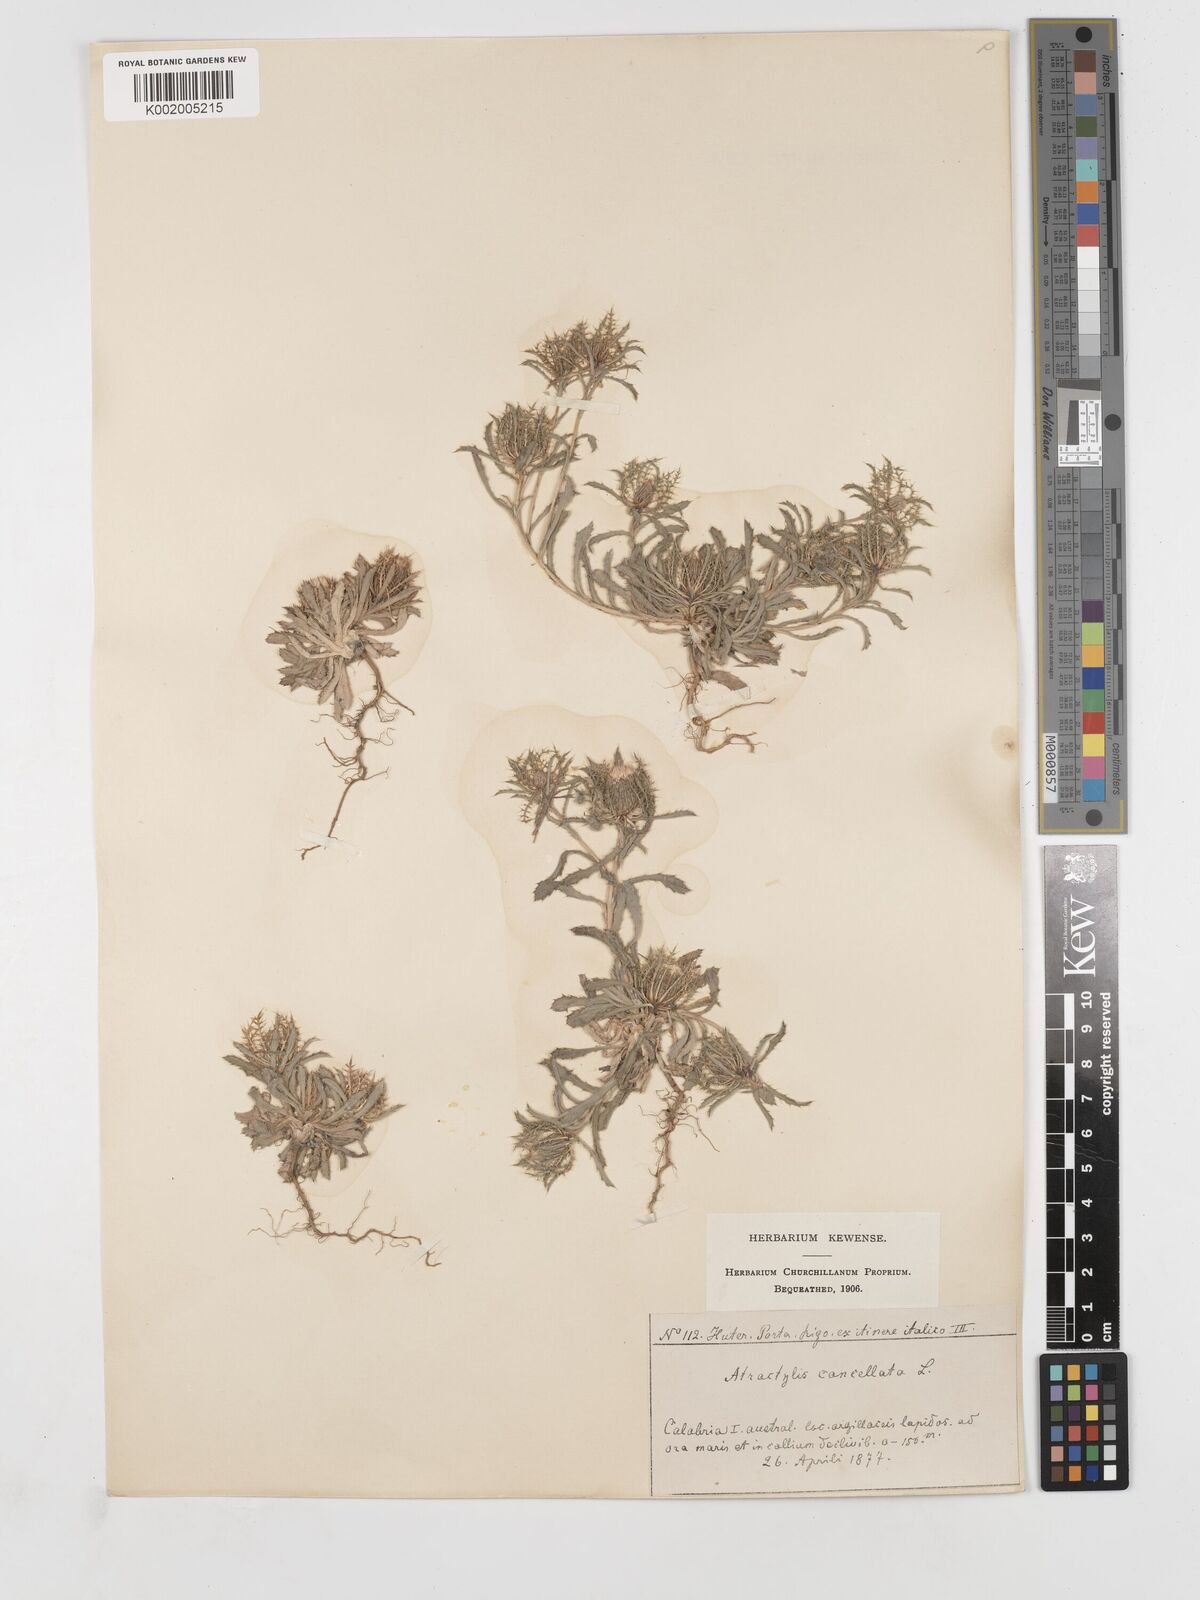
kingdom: Plantae
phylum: Tracheophyta
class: Magnoliopsida
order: Asterales
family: Asteraceae
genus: Atractylis
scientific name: Atractylis cancellata
